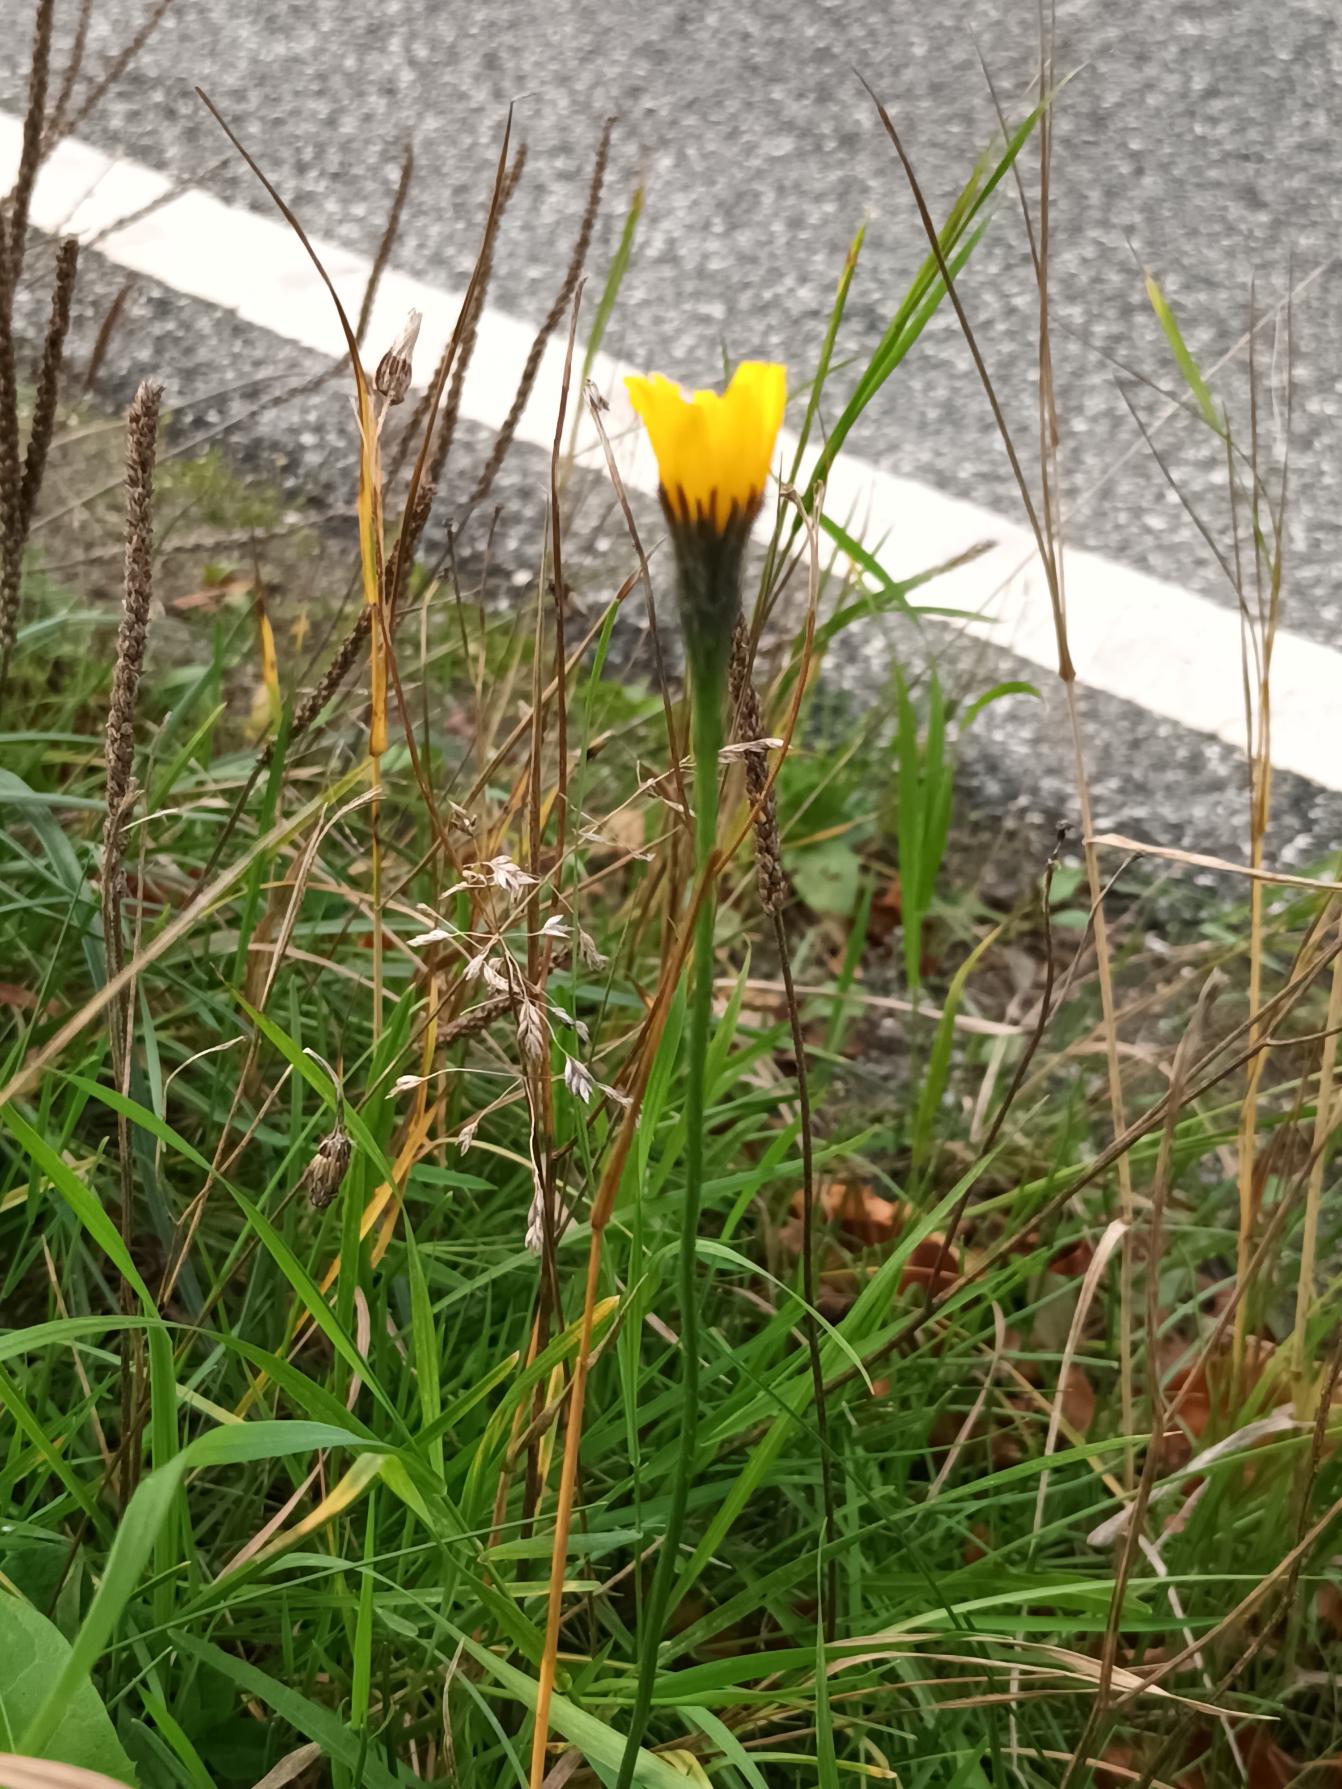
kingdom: Plantae
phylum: Tracheophyta
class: Magnoliopsida
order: Asterales
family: Asteraceae
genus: Scorzoneroides
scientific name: Scorzoneroides autumnalis
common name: Høst-borst
